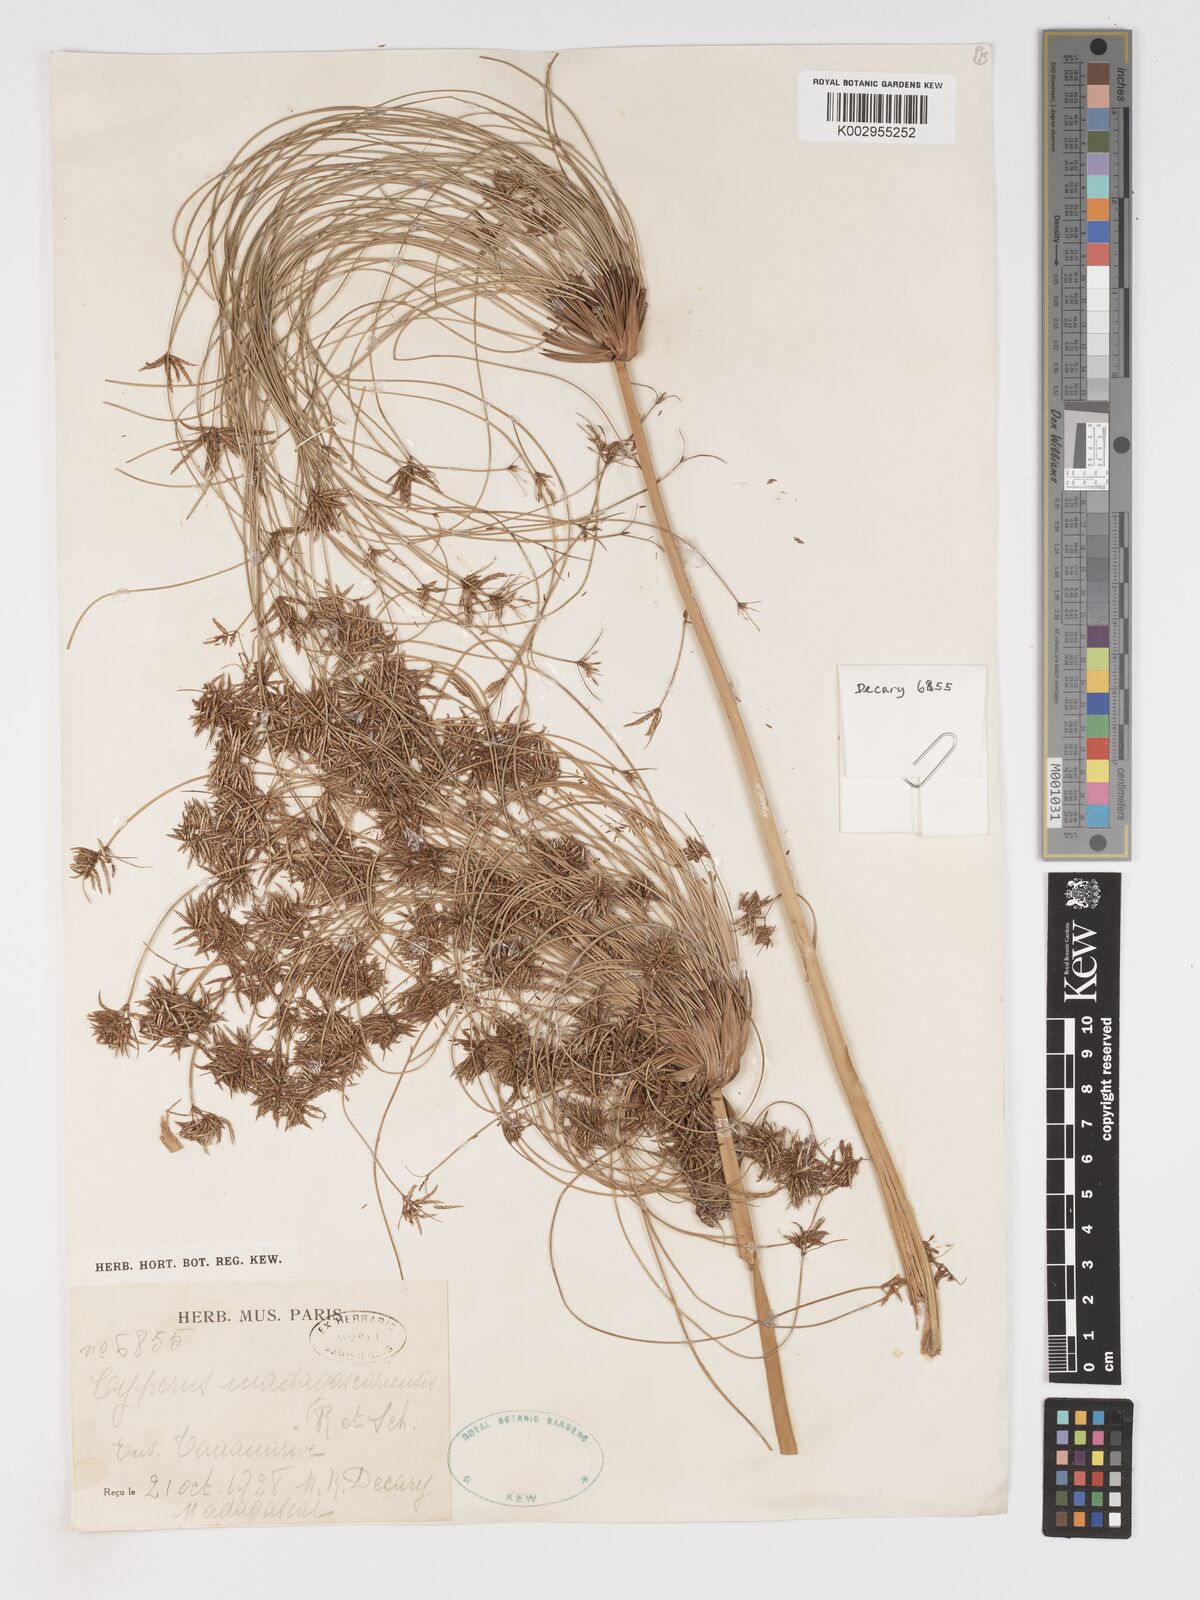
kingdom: Plantae
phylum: Tracheophyta
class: Liliopsida
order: Poales
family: Cyperaceae
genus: Cyperus
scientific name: Cyperus papyrus
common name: Papyrus
